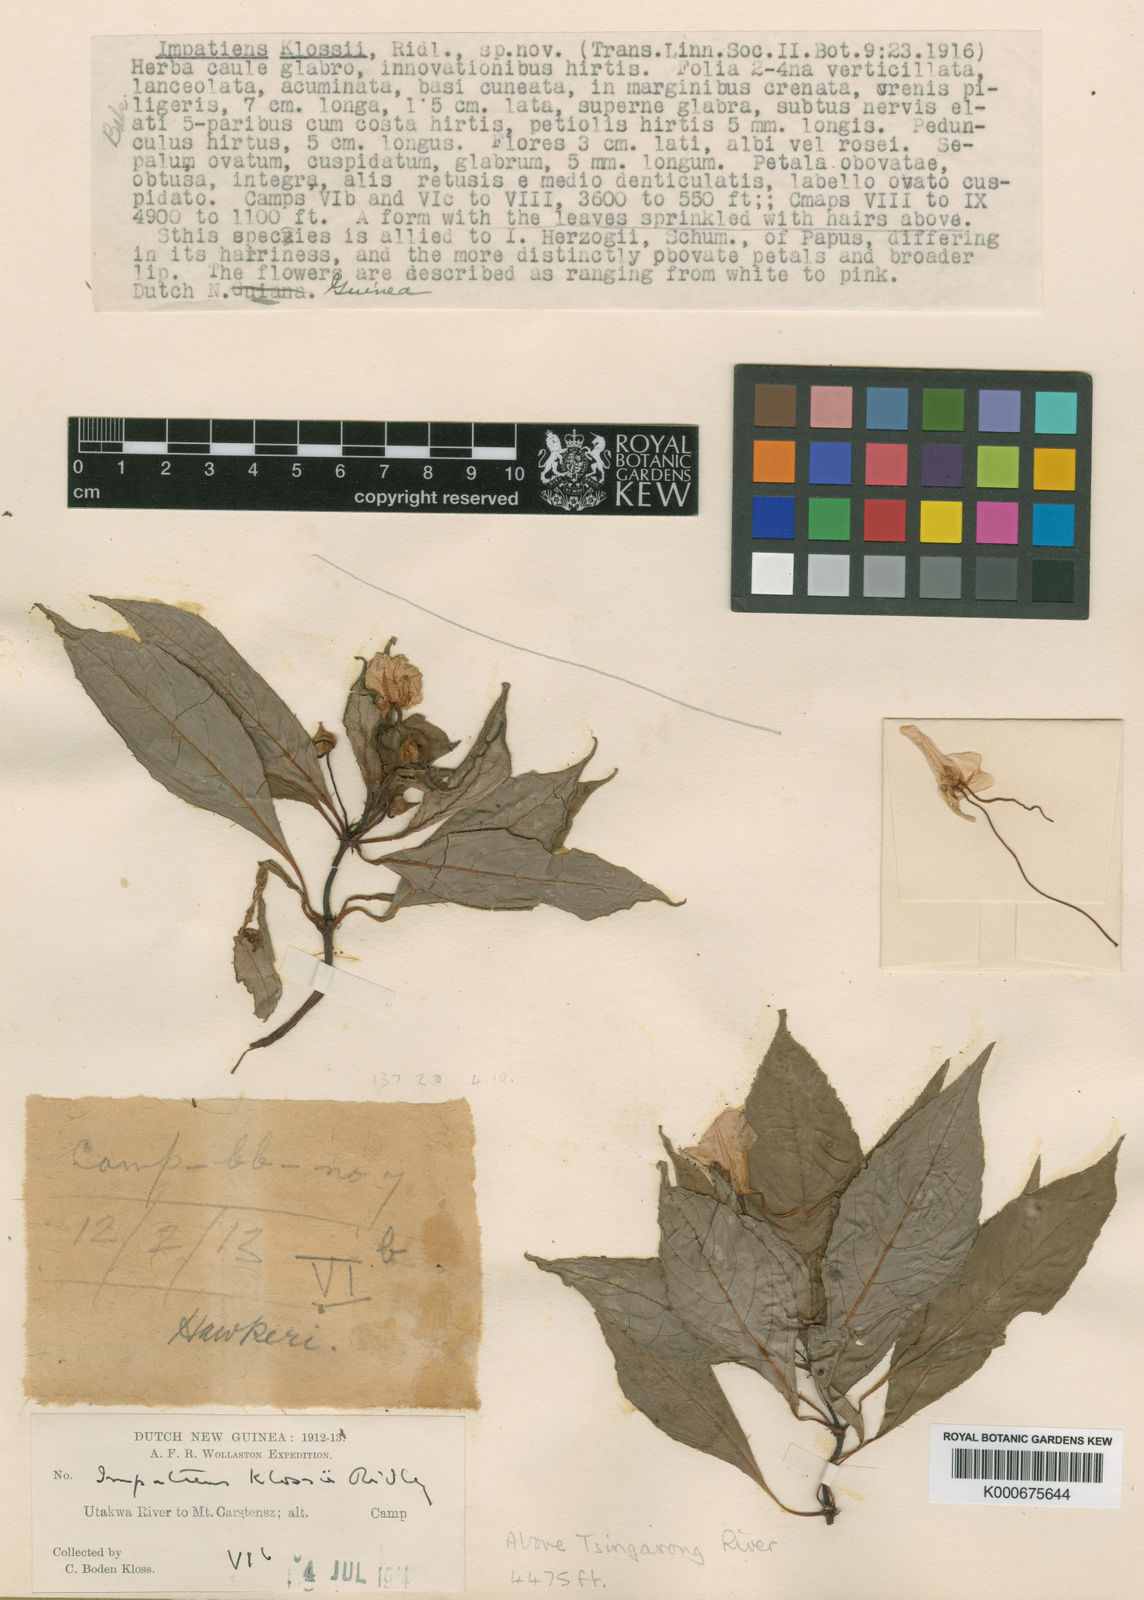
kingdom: Plantae
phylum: Tracheophyta
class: Magnoliopsida
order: Ericales
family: Balsaminaceae
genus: Impatiens
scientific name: Impatiens bodenii
